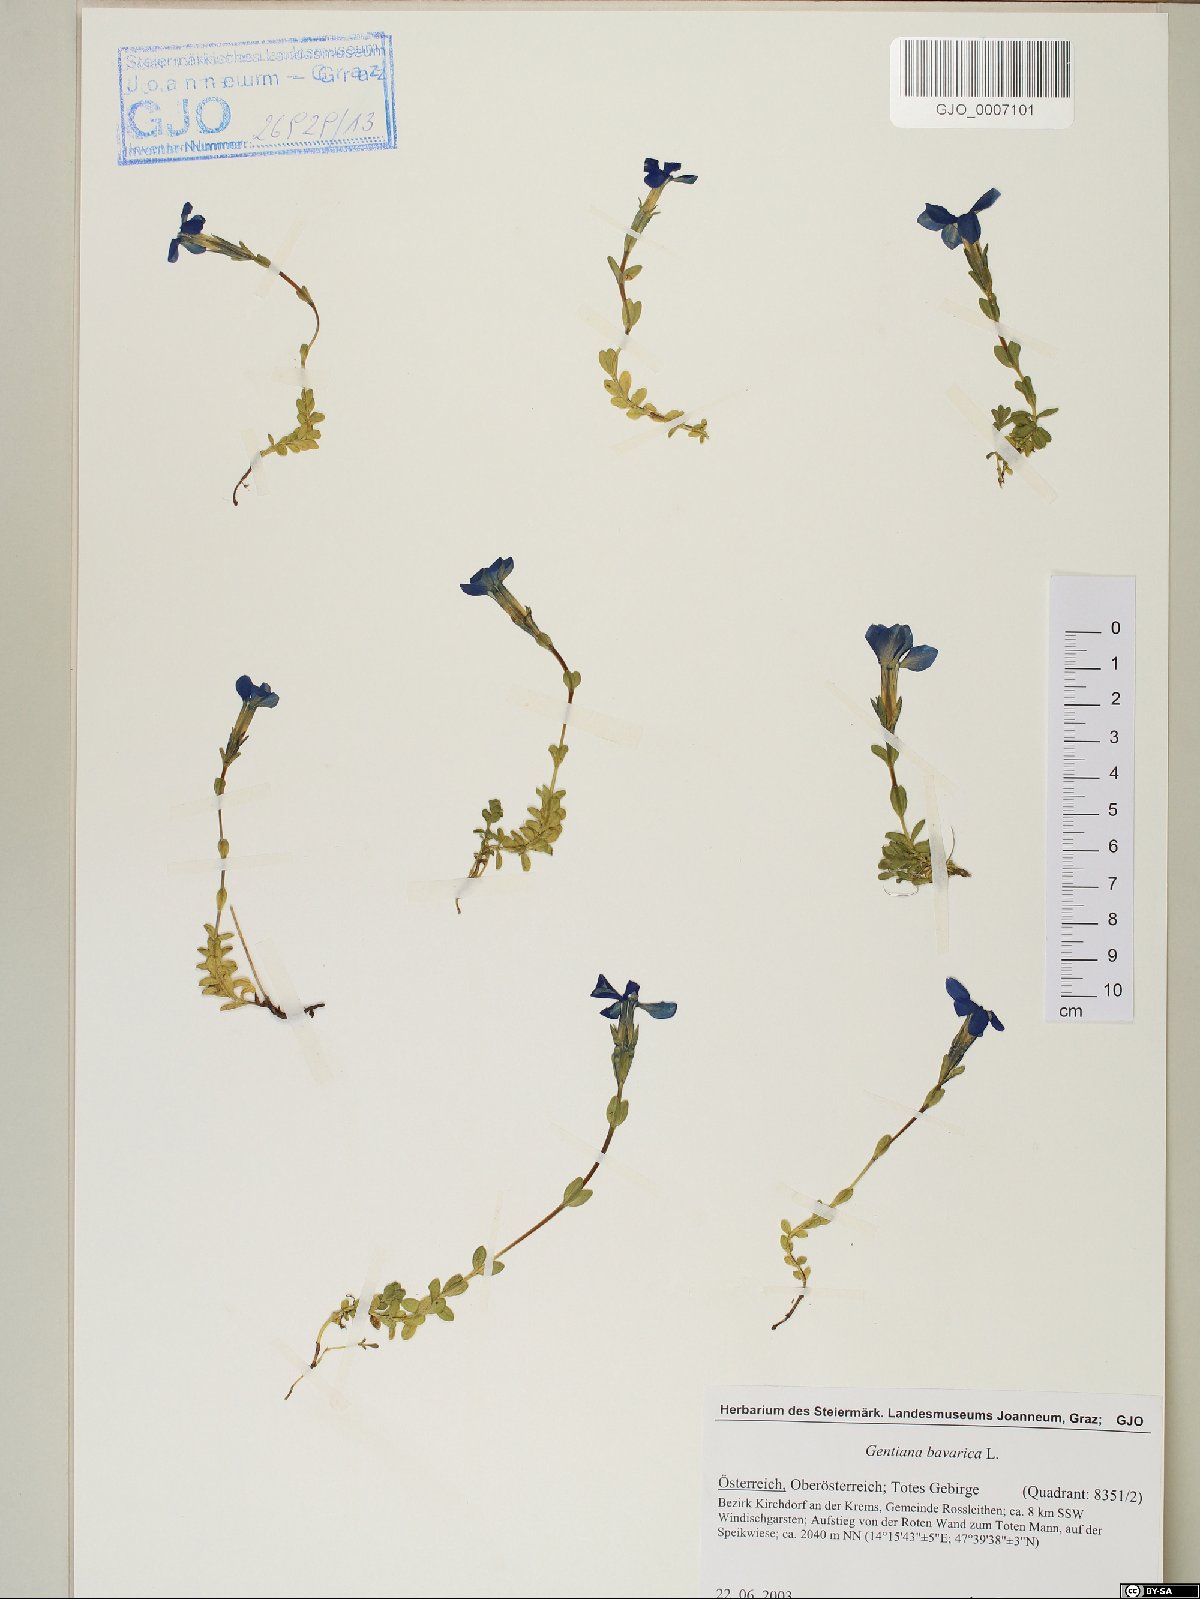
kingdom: Plantae
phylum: Tracheophyta
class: Magnoliopsida
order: Gentianales
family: Gentianaceae
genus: Gentiana
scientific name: Gentiana bavarica
